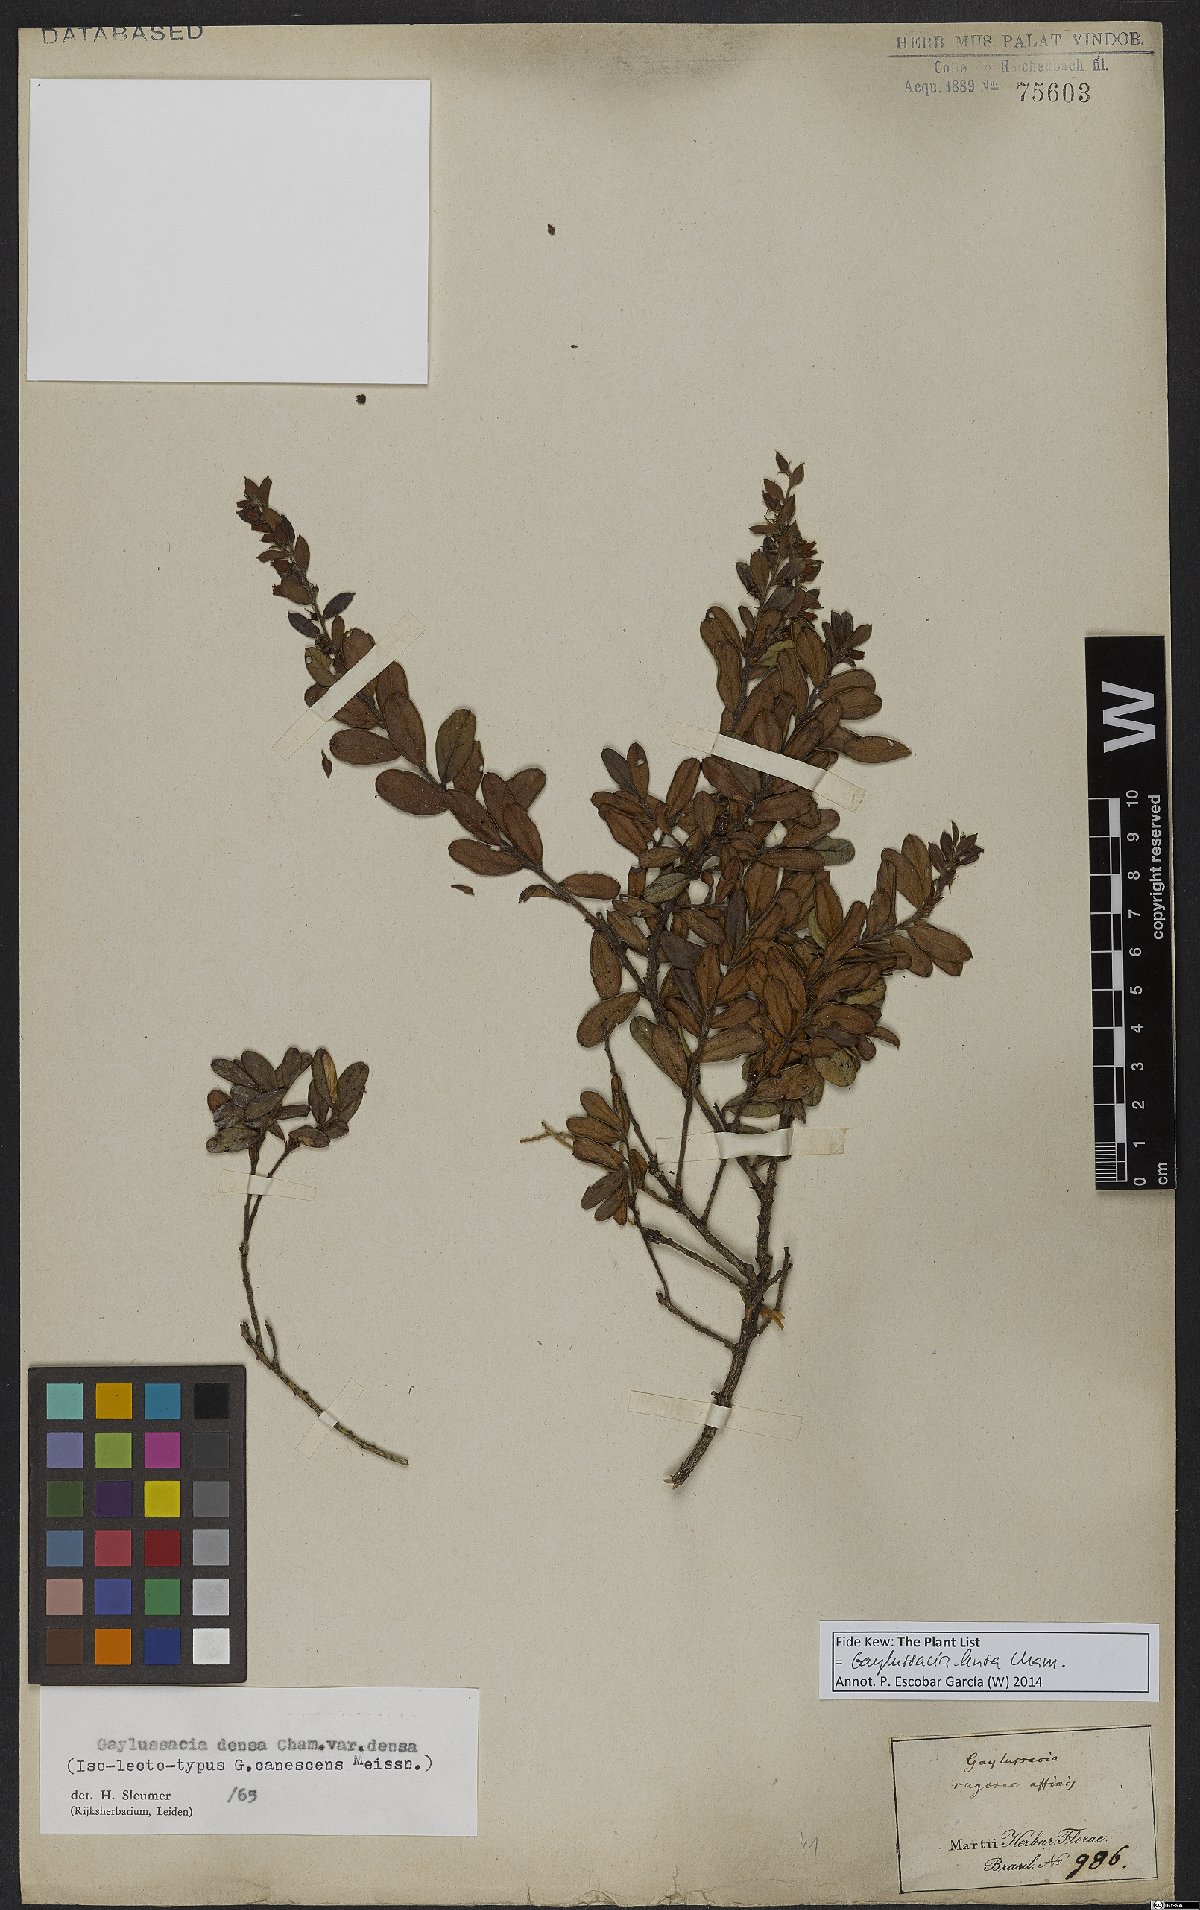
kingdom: Plantae
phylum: Tracheophyta
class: Magnoliopsida
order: Ericales
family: Ericaceae
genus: Gaylussacia
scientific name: Gaylussacia densa
